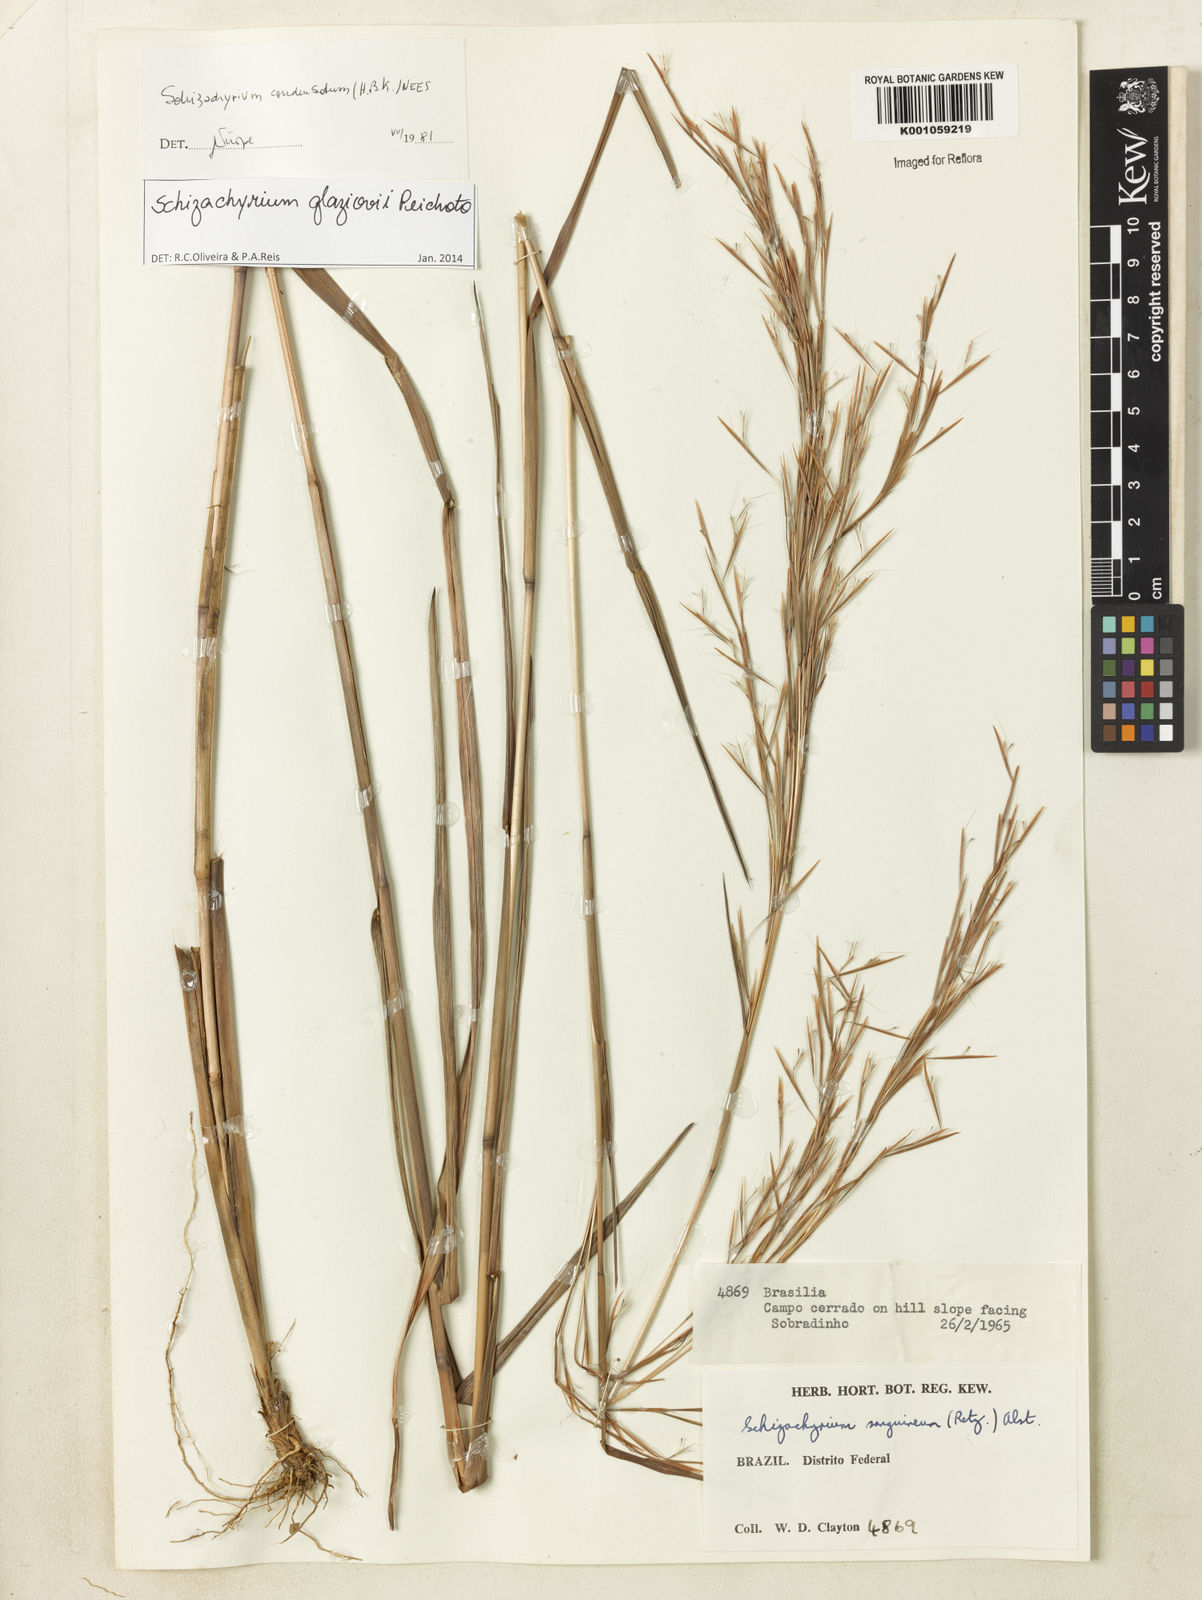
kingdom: Plantae
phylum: Tracheophyta
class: Liliopsida
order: Poales
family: Poaceae
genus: Schizachyrium
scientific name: Schizachyrium glaziovii
